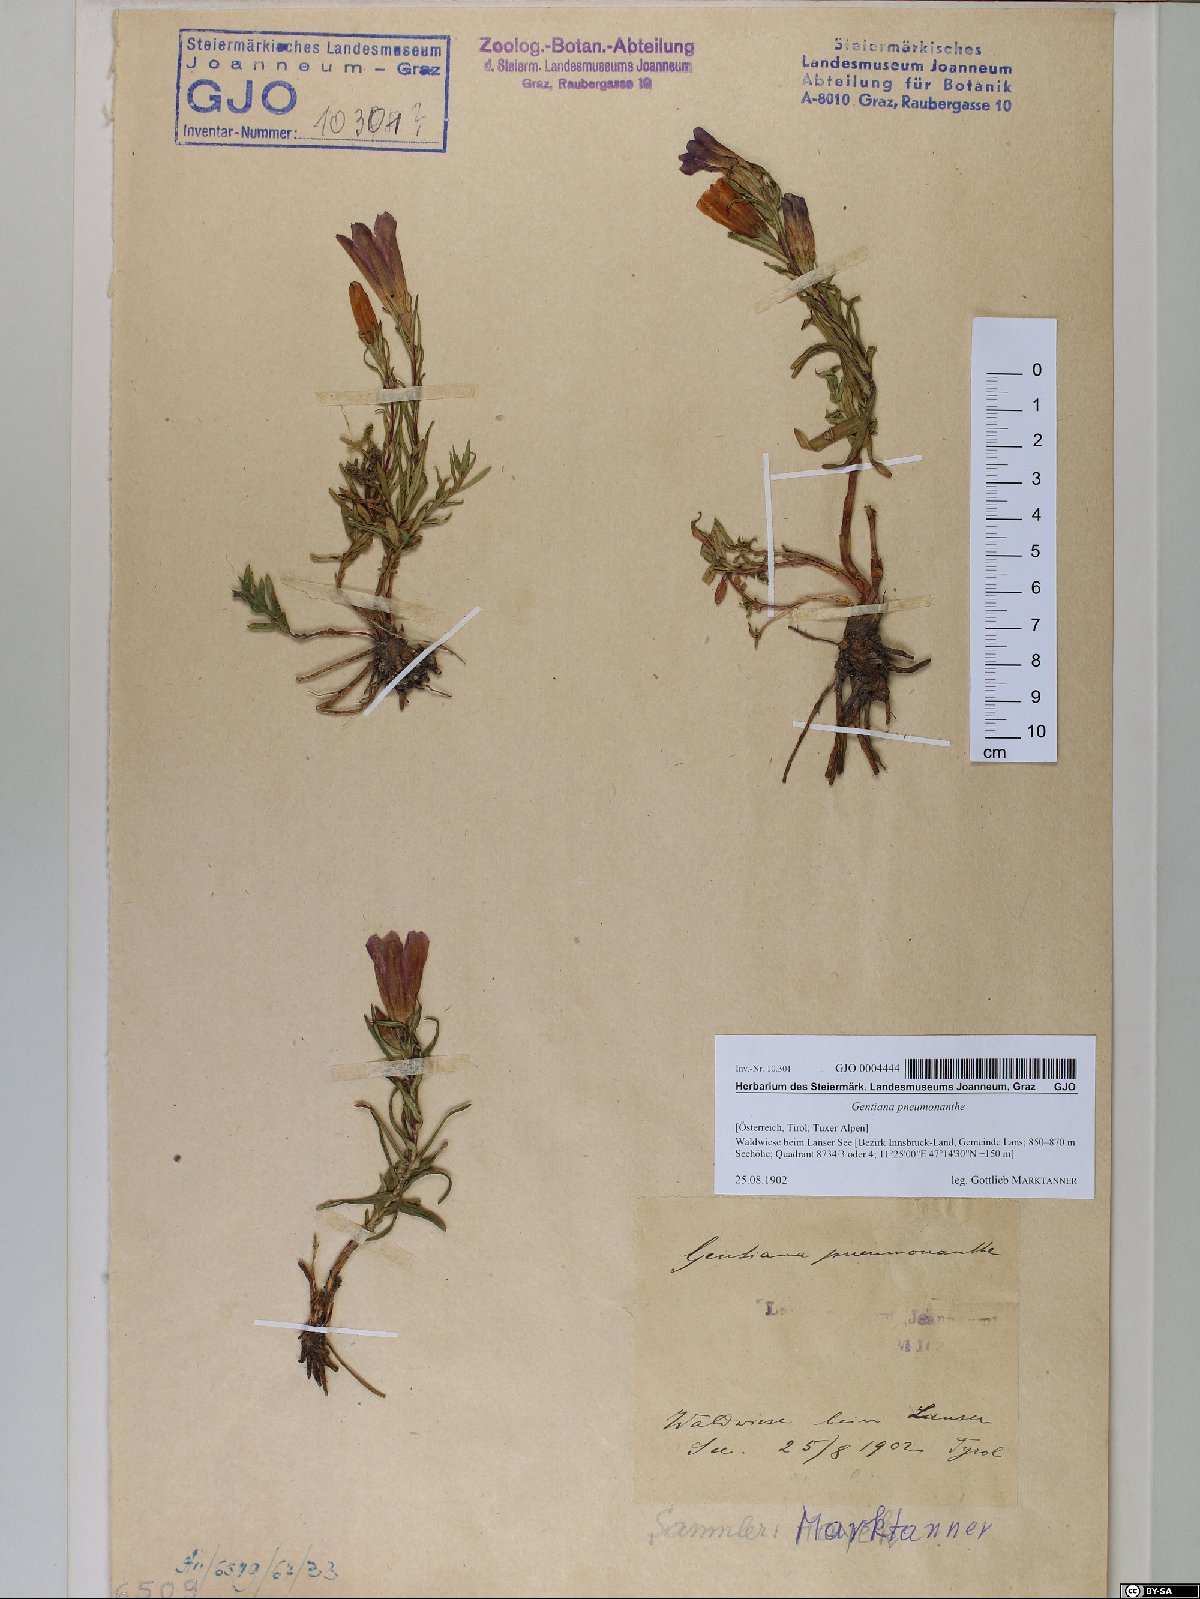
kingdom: Plantae
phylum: Tracheophyta
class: Magnoliopsida
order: Gentianales
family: Gentianaceae
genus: Gentiana
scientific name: Gentiana pneumonanthe
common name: Marsh gentian
